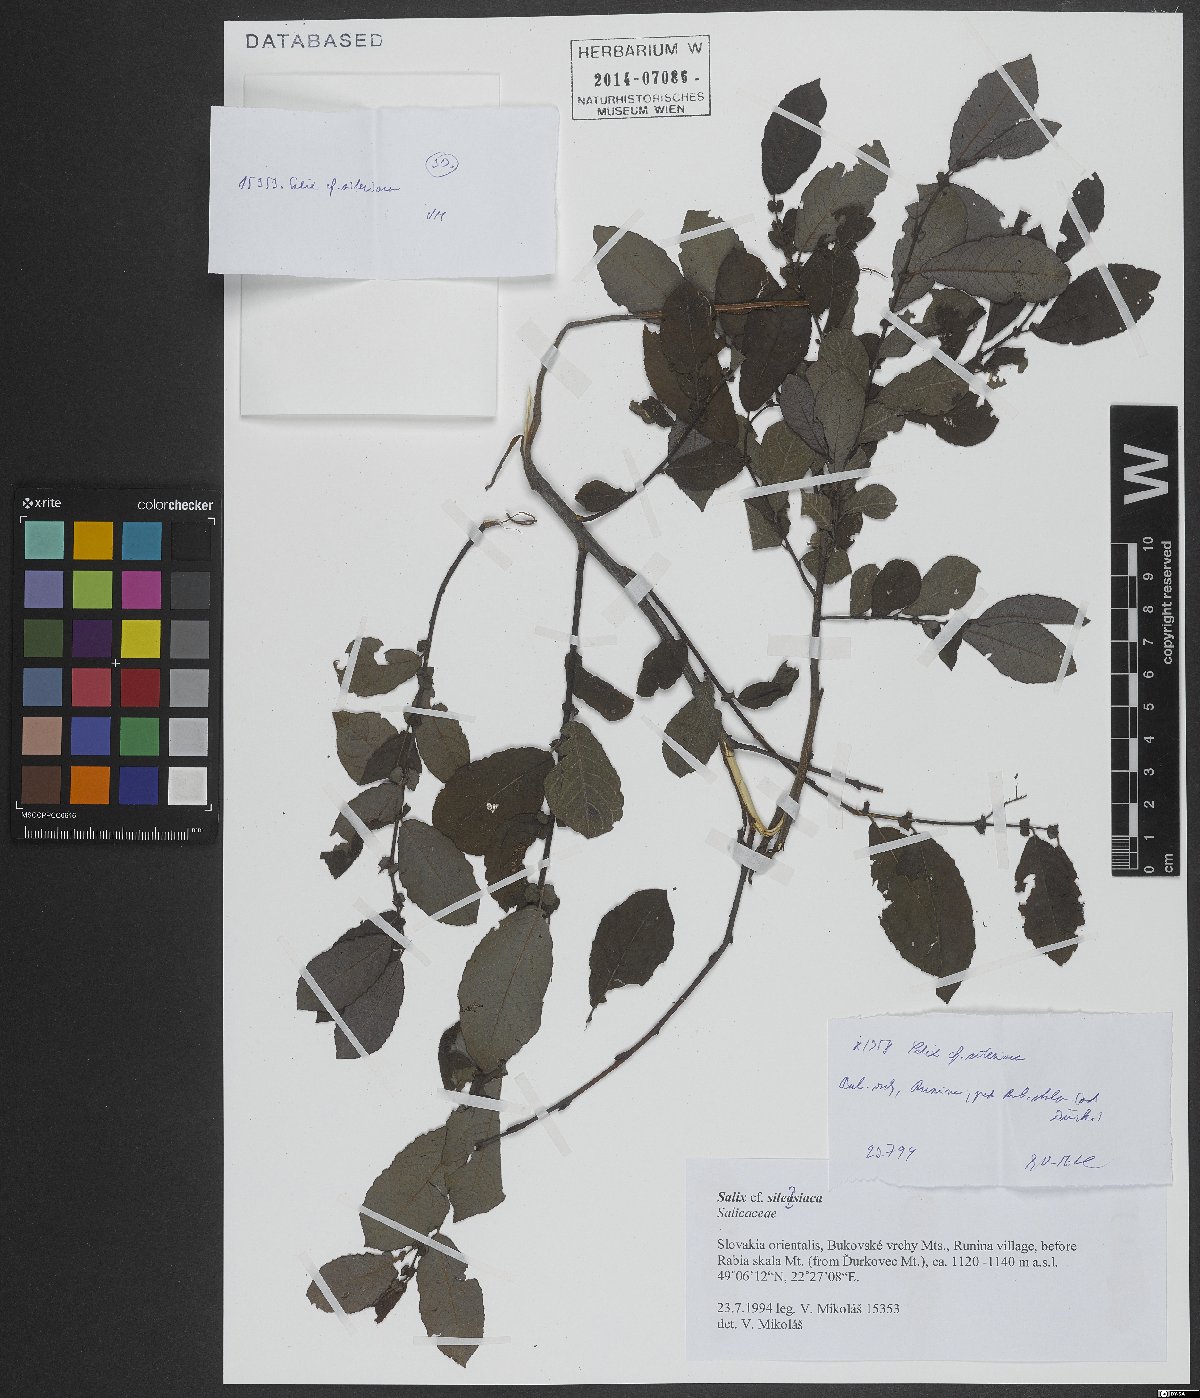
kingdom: Plantae
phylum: Tracheophyta
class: Magnoliopsida
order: Malpighiales
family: Salicaceae
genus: Salix
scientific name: Salix silesiaca
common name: Silesian willow
